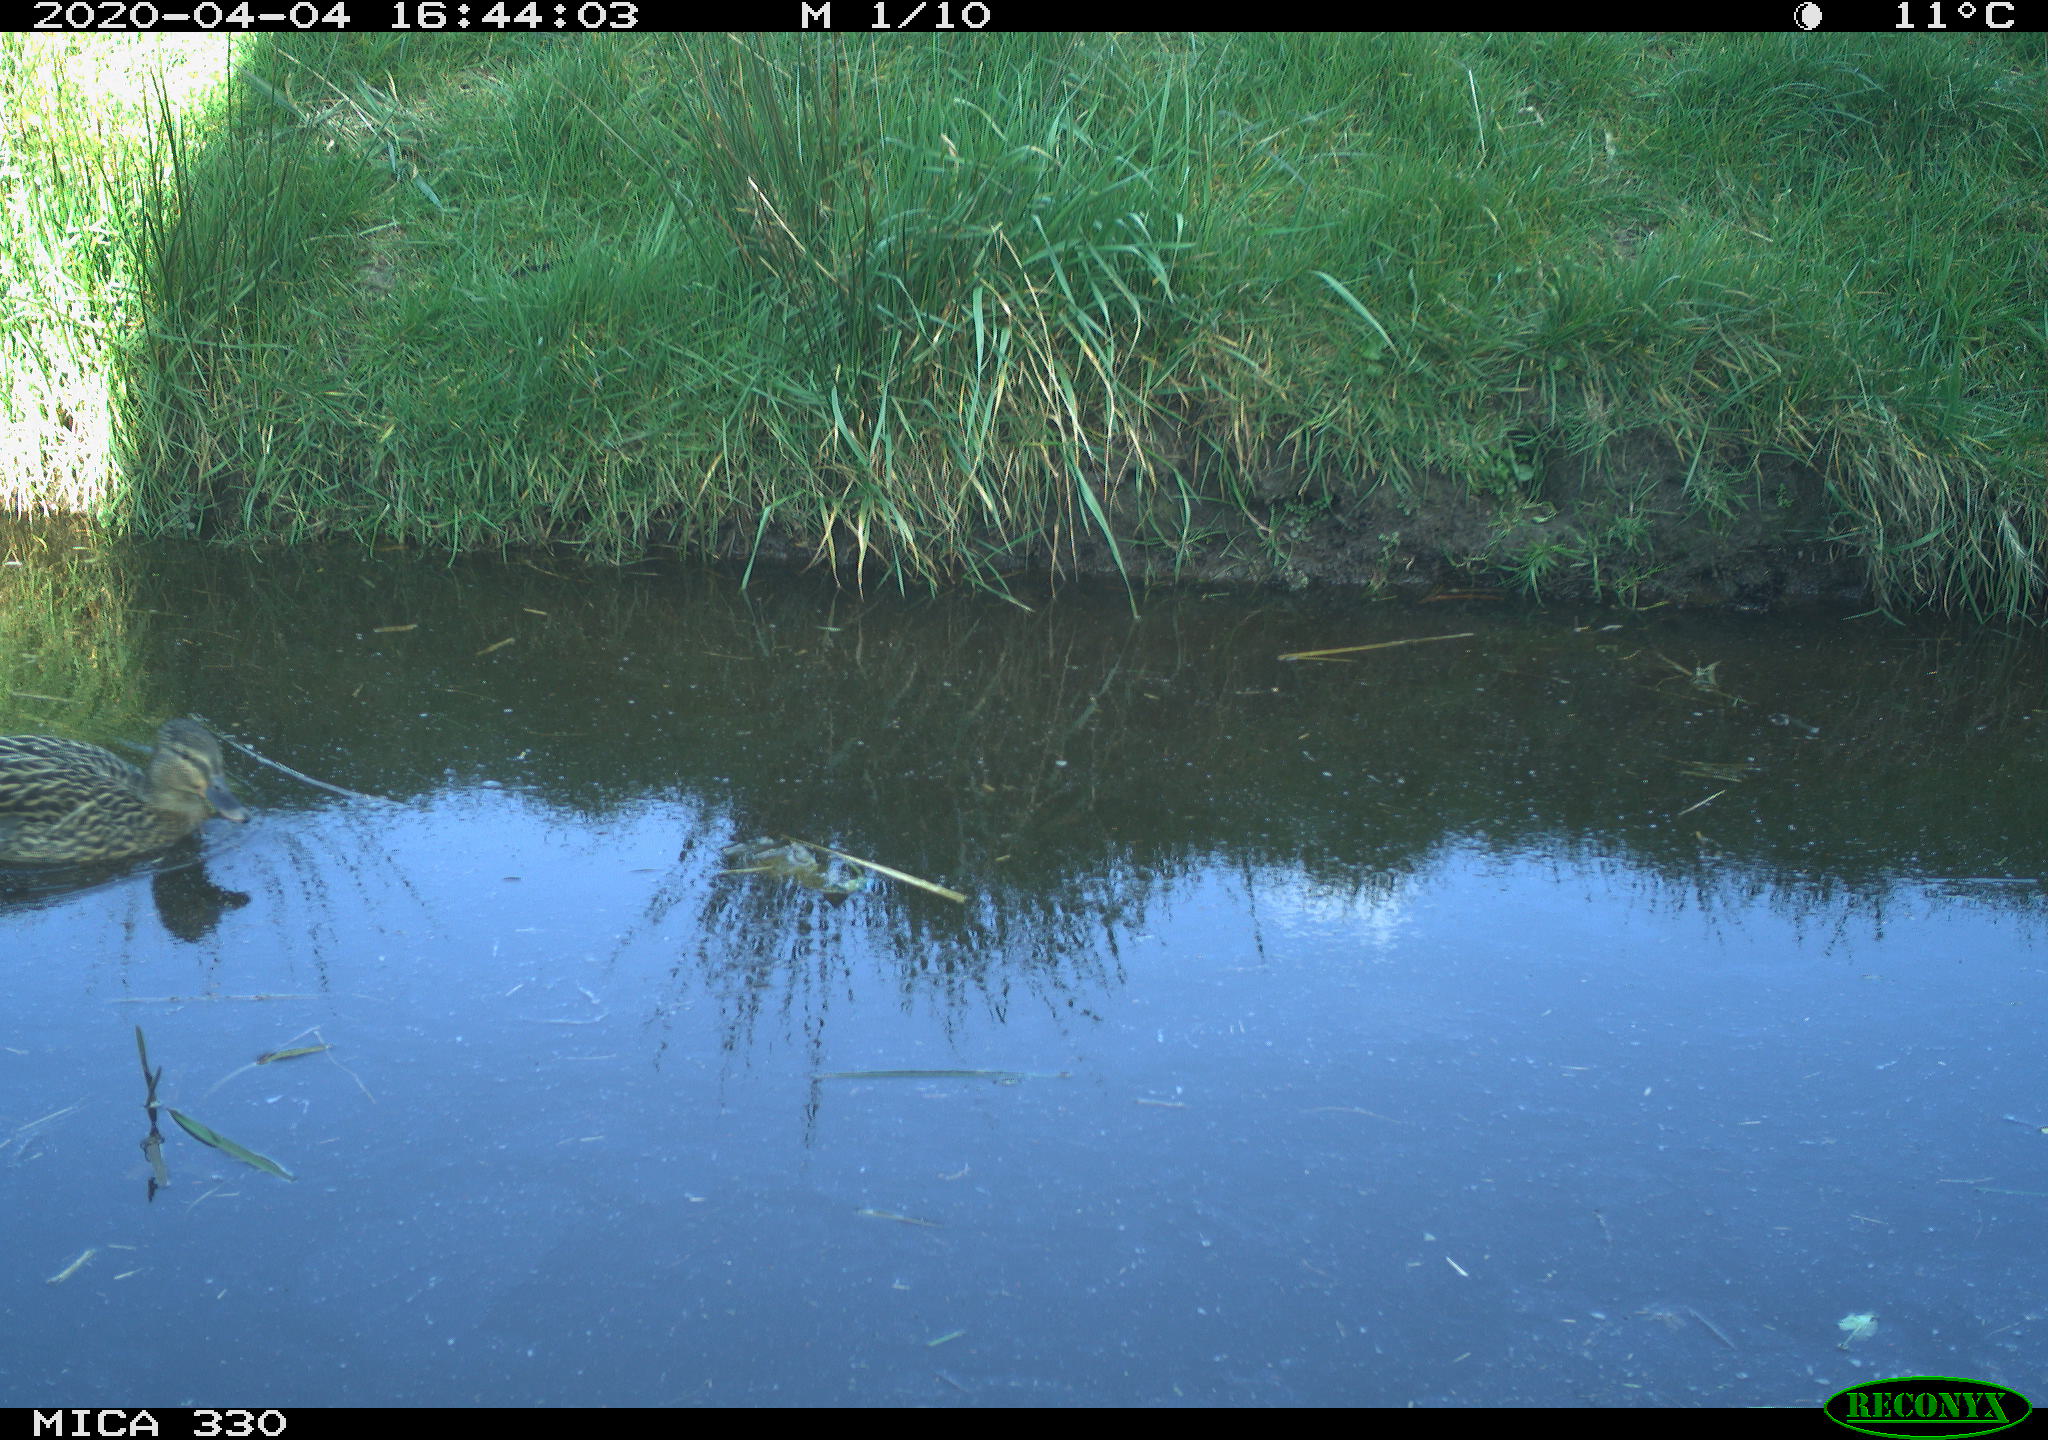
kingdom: Animalia
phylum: Chordata
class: Aves
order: Anseriformes
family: Anatidae
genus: Mareca
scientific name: Mareca strepera
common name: Gadwall
